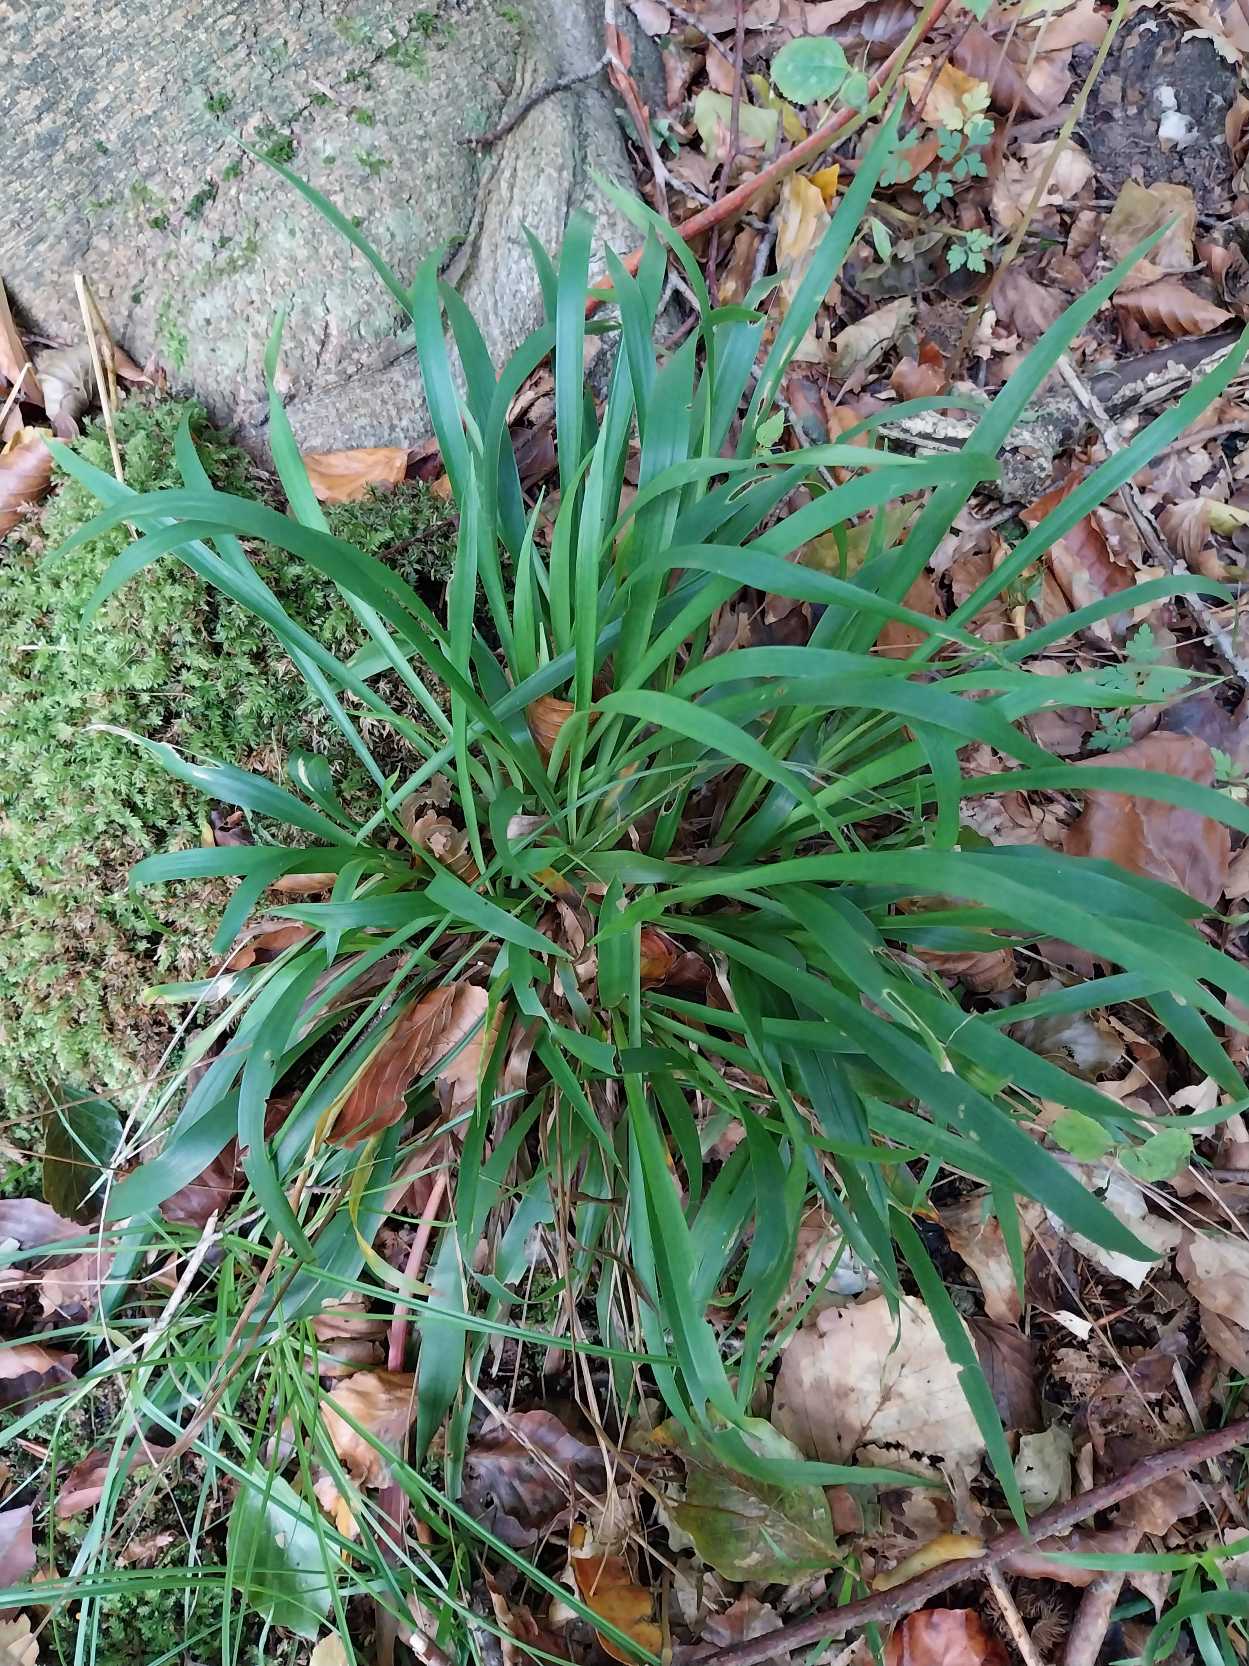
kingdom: Plantae
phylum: Tracheophyta
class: Liliopsida
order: Poales
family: Juncaceae
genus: Luzula
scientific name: Luzula pilosa
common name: Håret frytle
